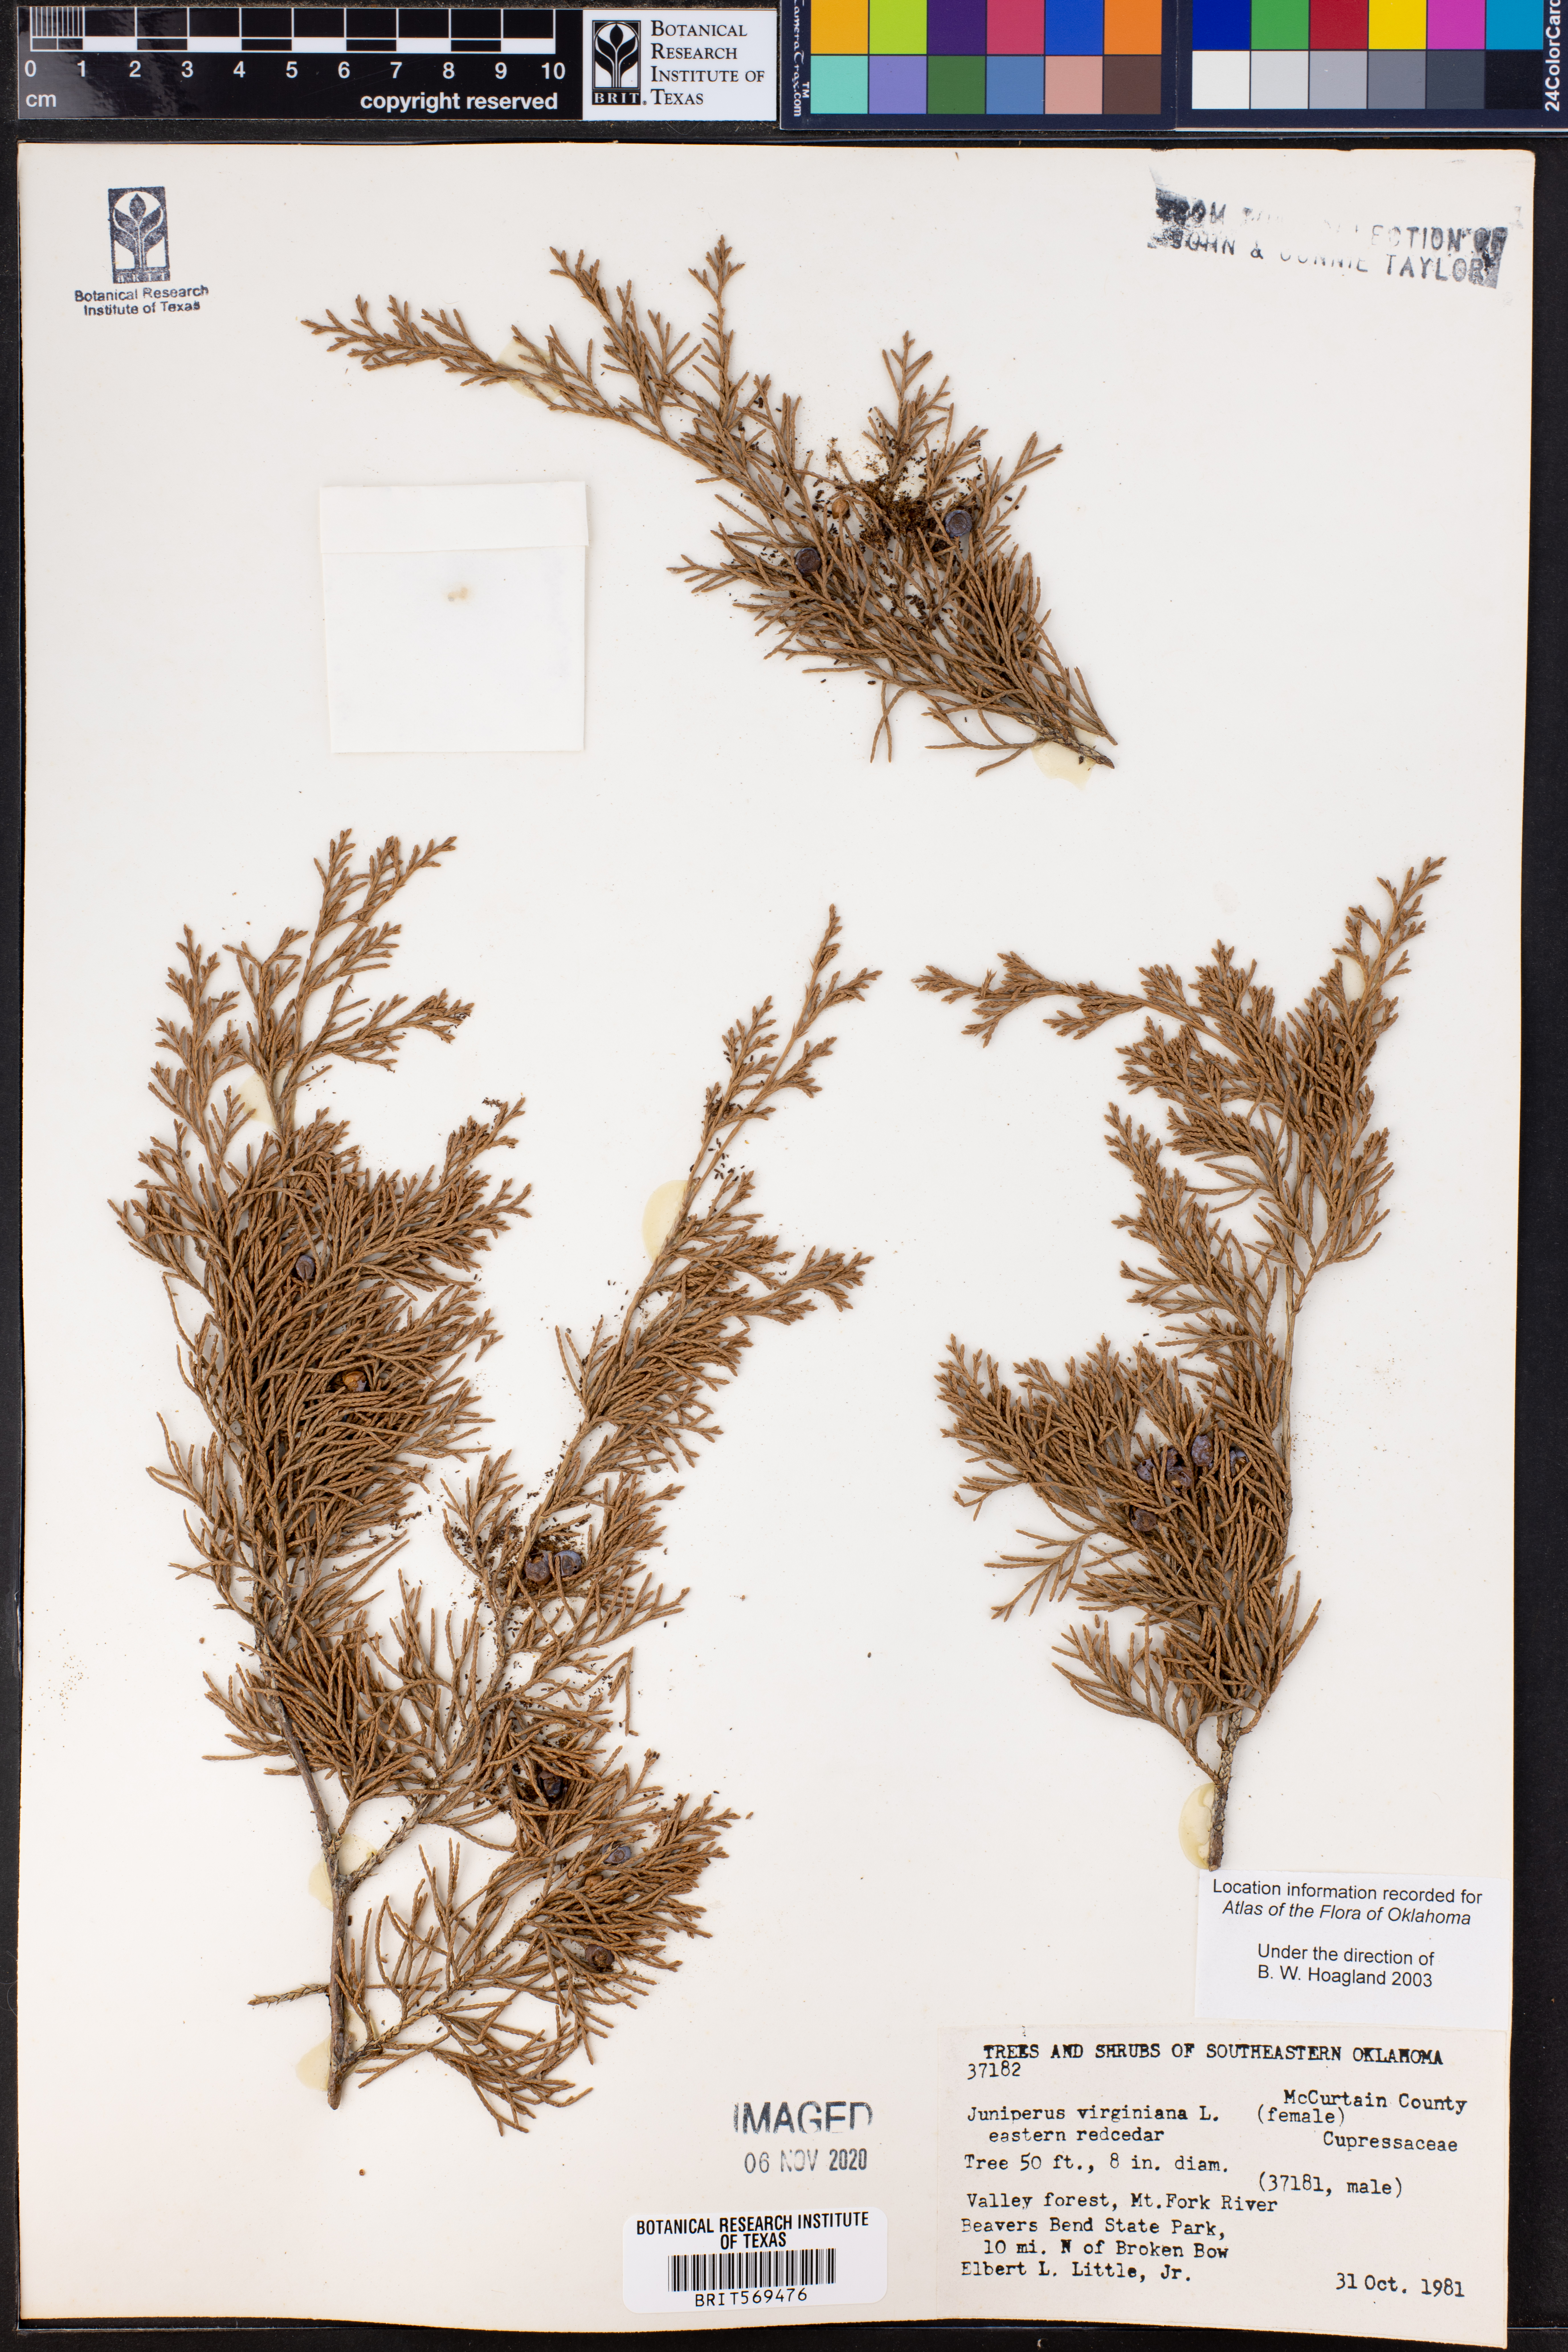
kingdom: Plantae
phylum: Tracheophyta
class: Pinopsida
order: Pinales
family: Cupressaceae
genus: Juniperus
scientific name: Juniperus virginiana
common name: Red juniper
